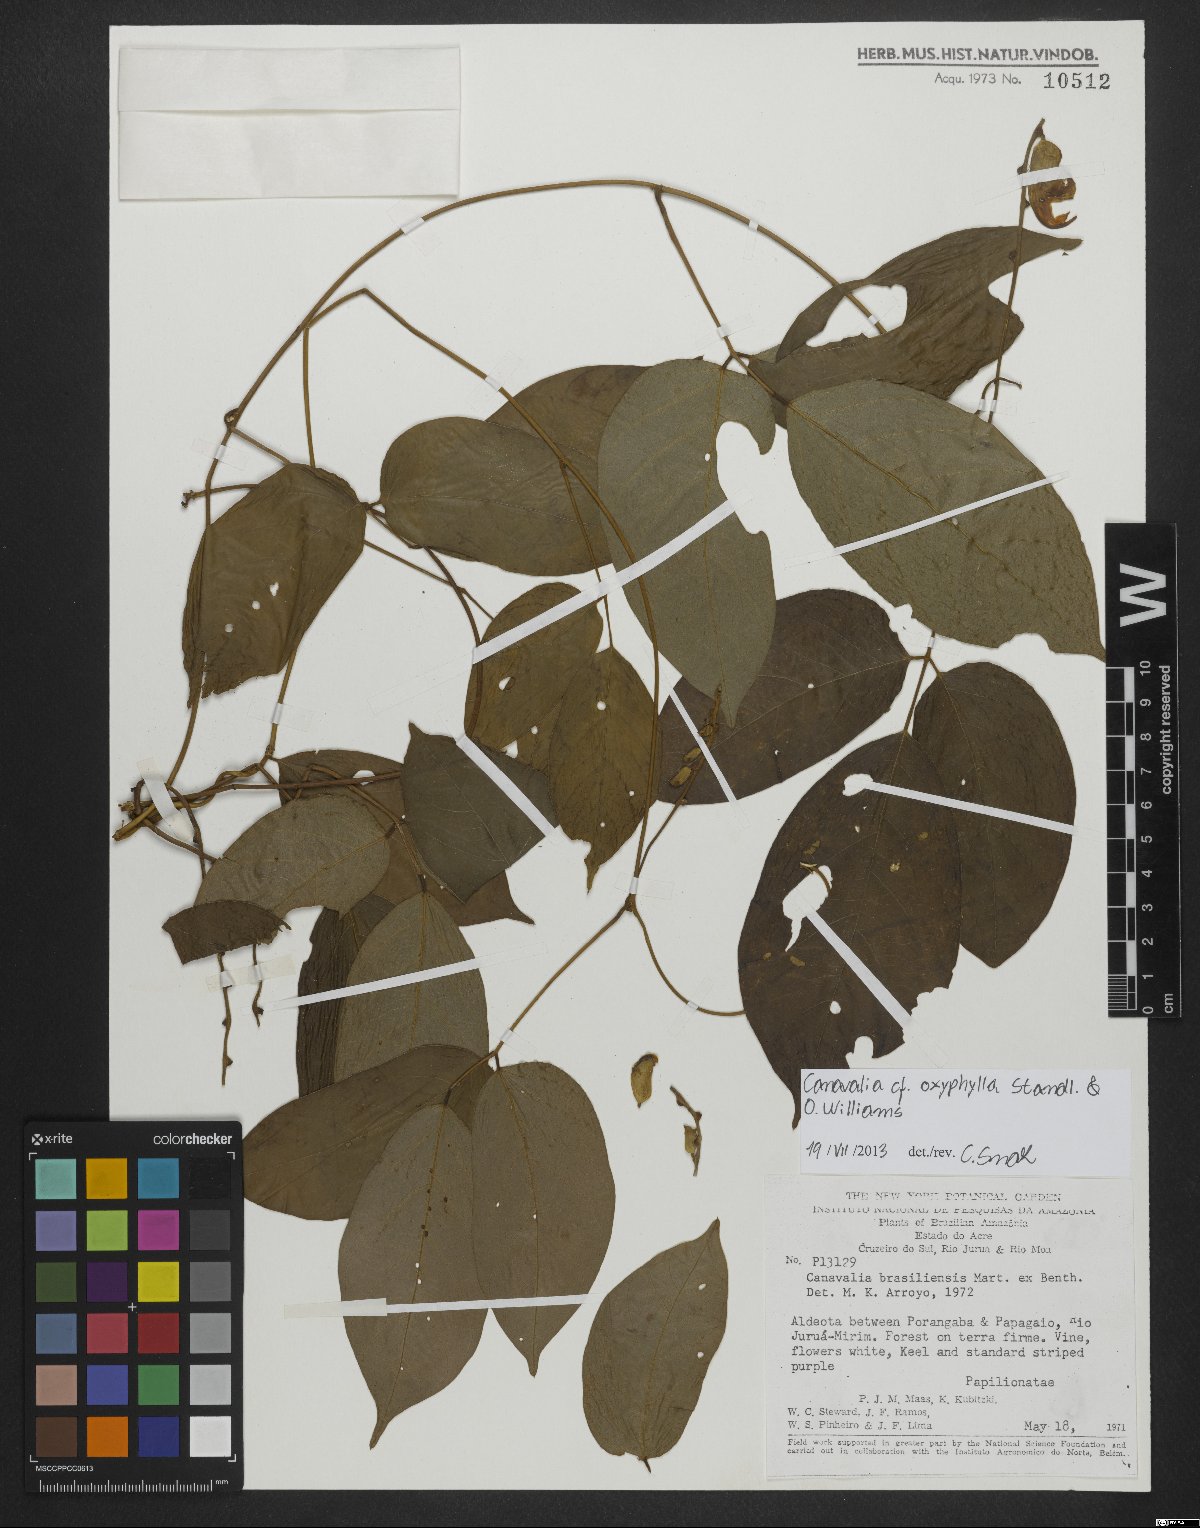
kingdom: Plantae
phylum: Tracheophyta
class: Magnoliopsida
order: Fabales
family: Fabaceae
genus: Canavalia
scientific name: Canavalia oxyphylla
